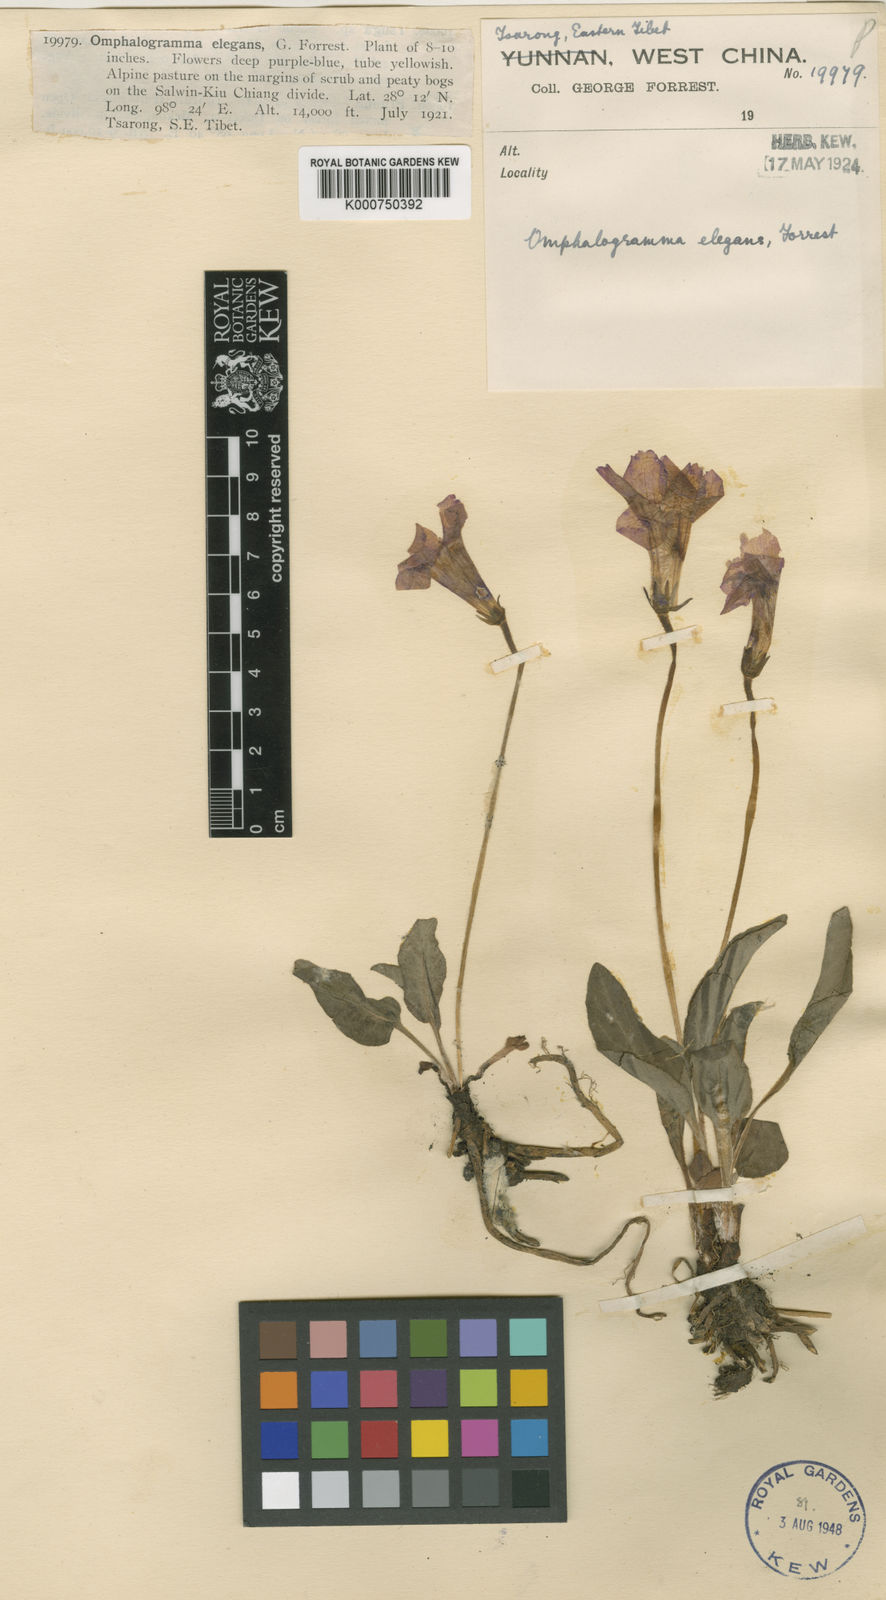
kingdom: Plantae
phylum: Tracheophyta
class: Magnoliopsida
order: Ericales
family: Primulaceae
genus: Omphalogramma
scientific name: Omphalogramma elegans
